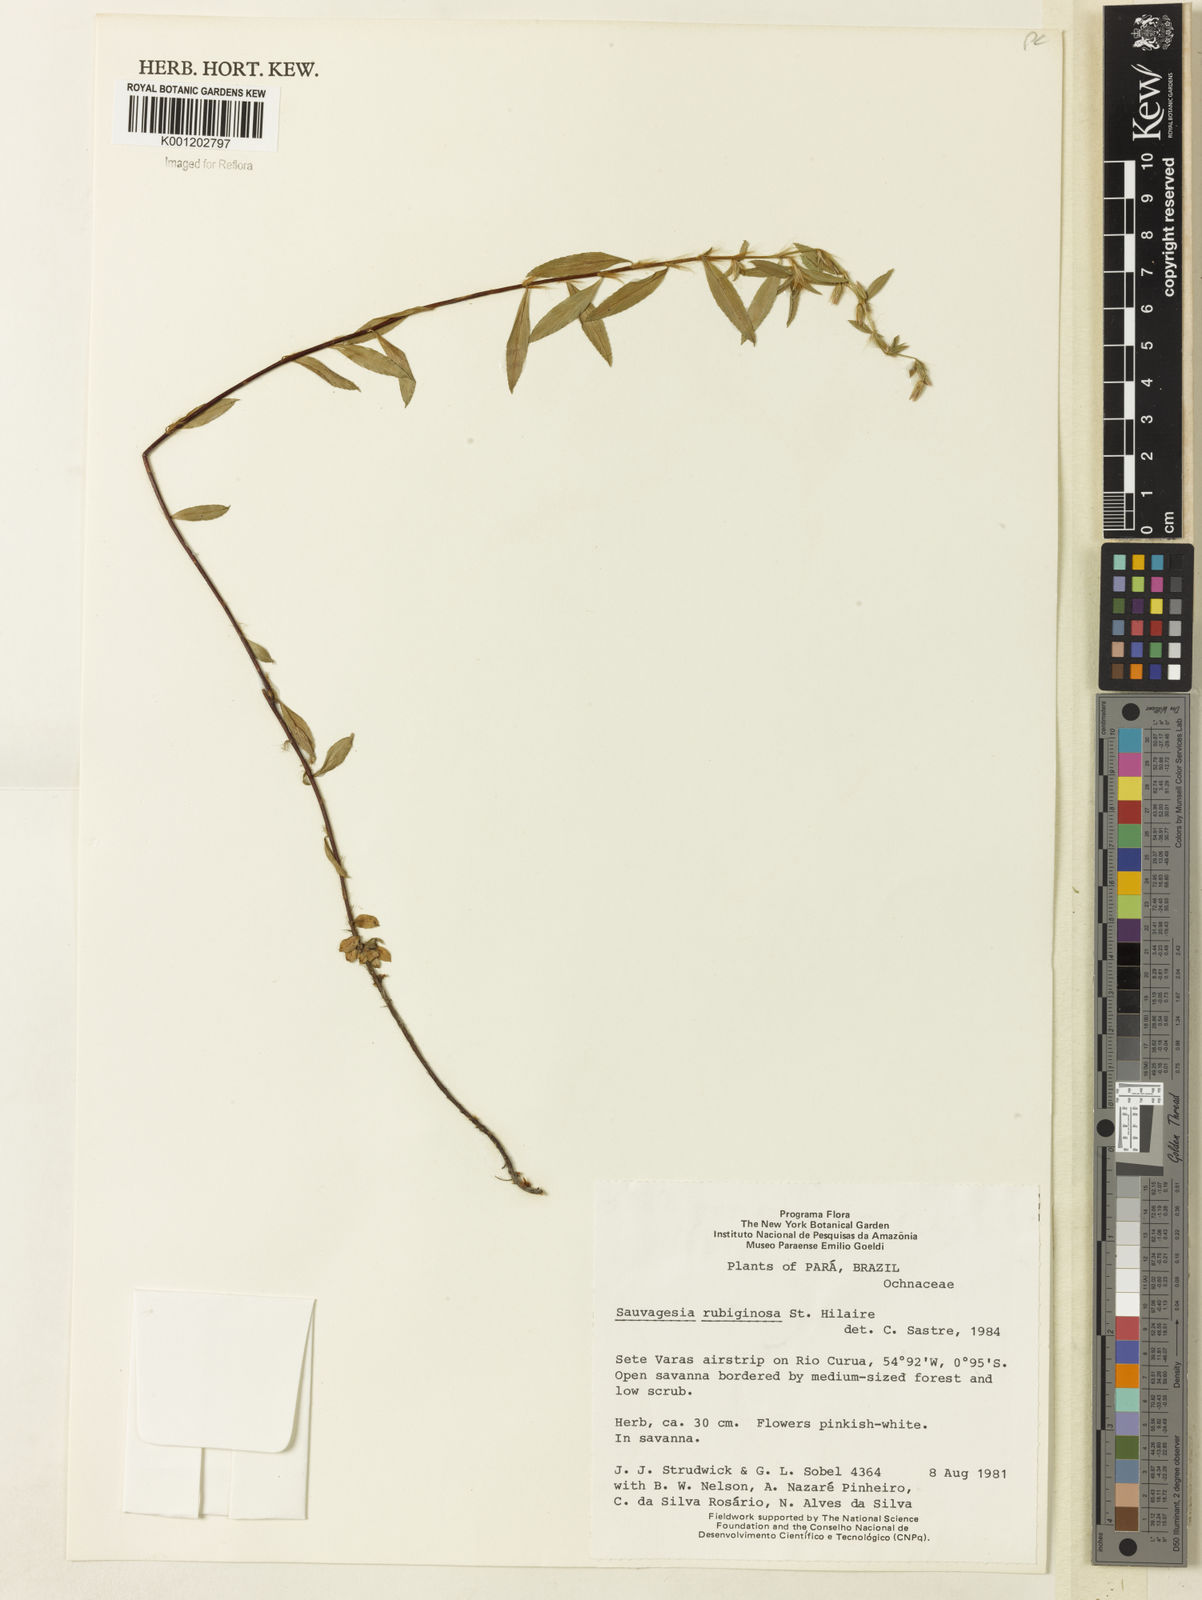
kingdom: Plantae
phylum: Tracheophyta
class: Magnoliopsida
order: Malpighiales
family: Ochnaceae
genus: Sauvagesia
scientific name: Sauvagesia rubiginosa
